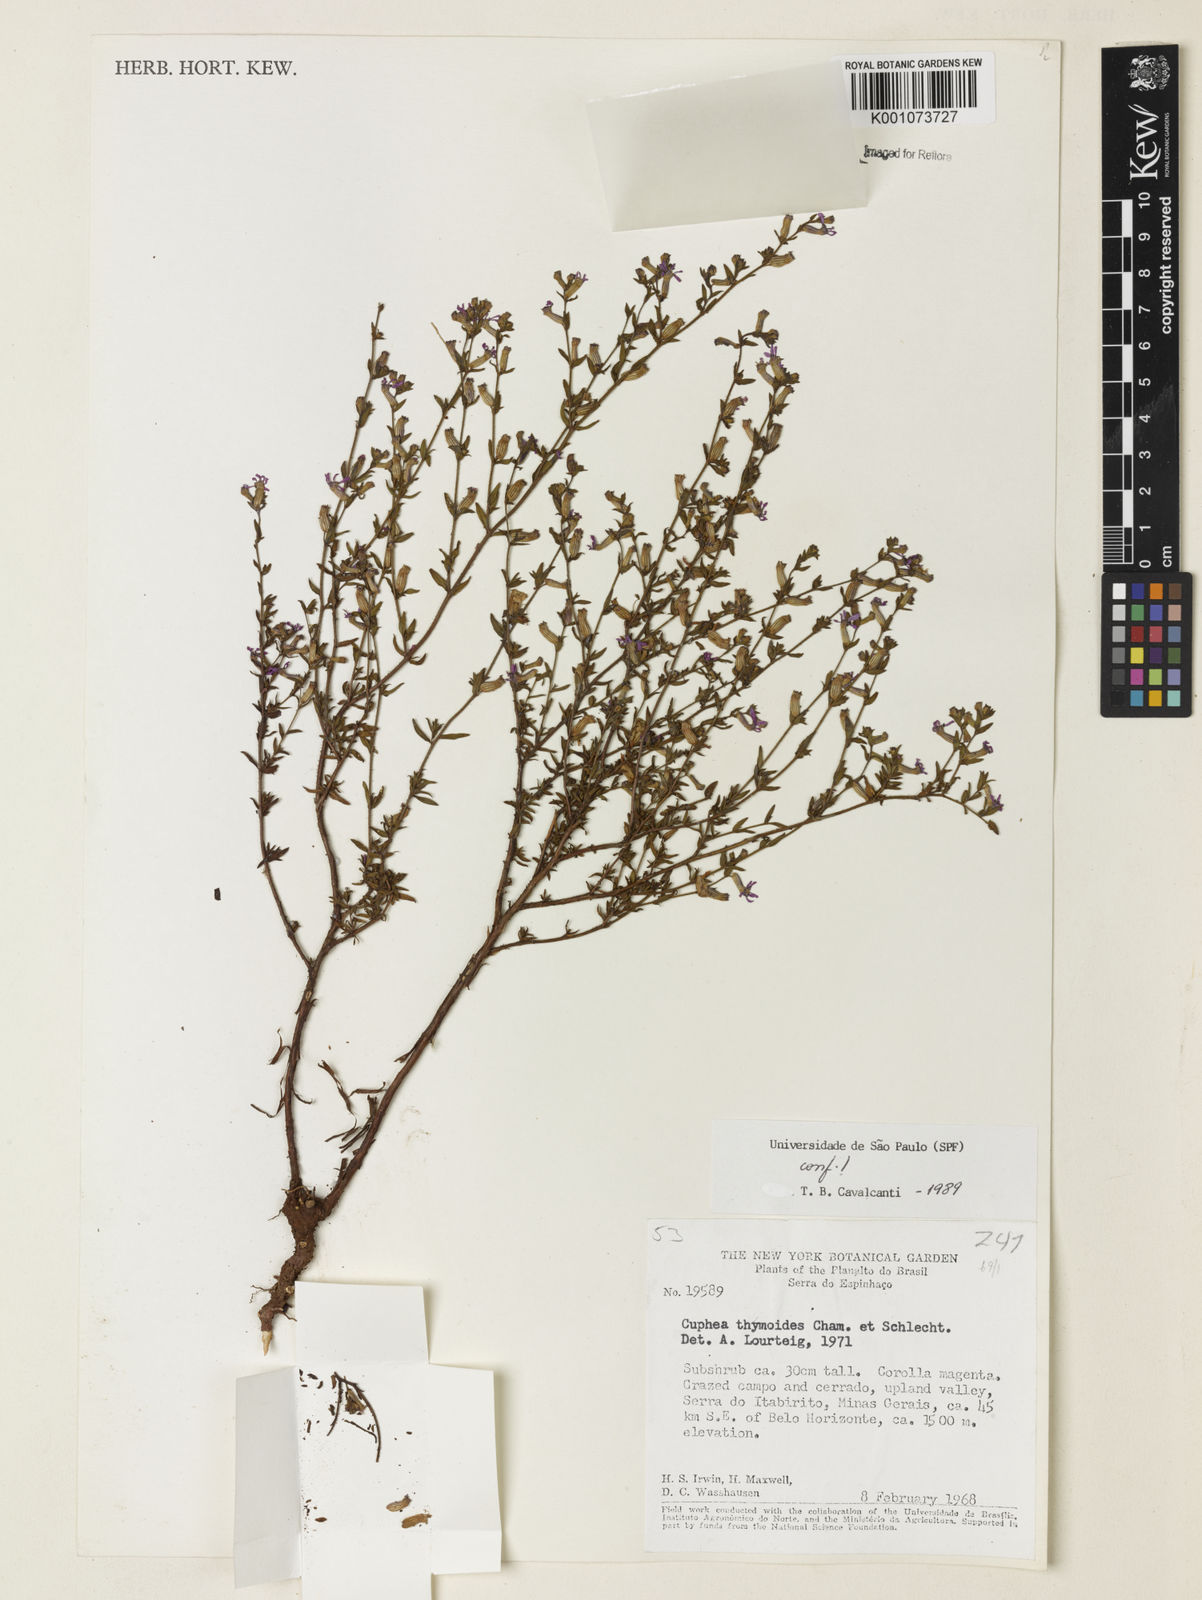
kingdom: Plantae
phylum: Tracheophyta
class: Magnoliopsida
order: Myrtales
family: Lythraceae
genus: Cuphea
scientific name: Cuphea thymoides
